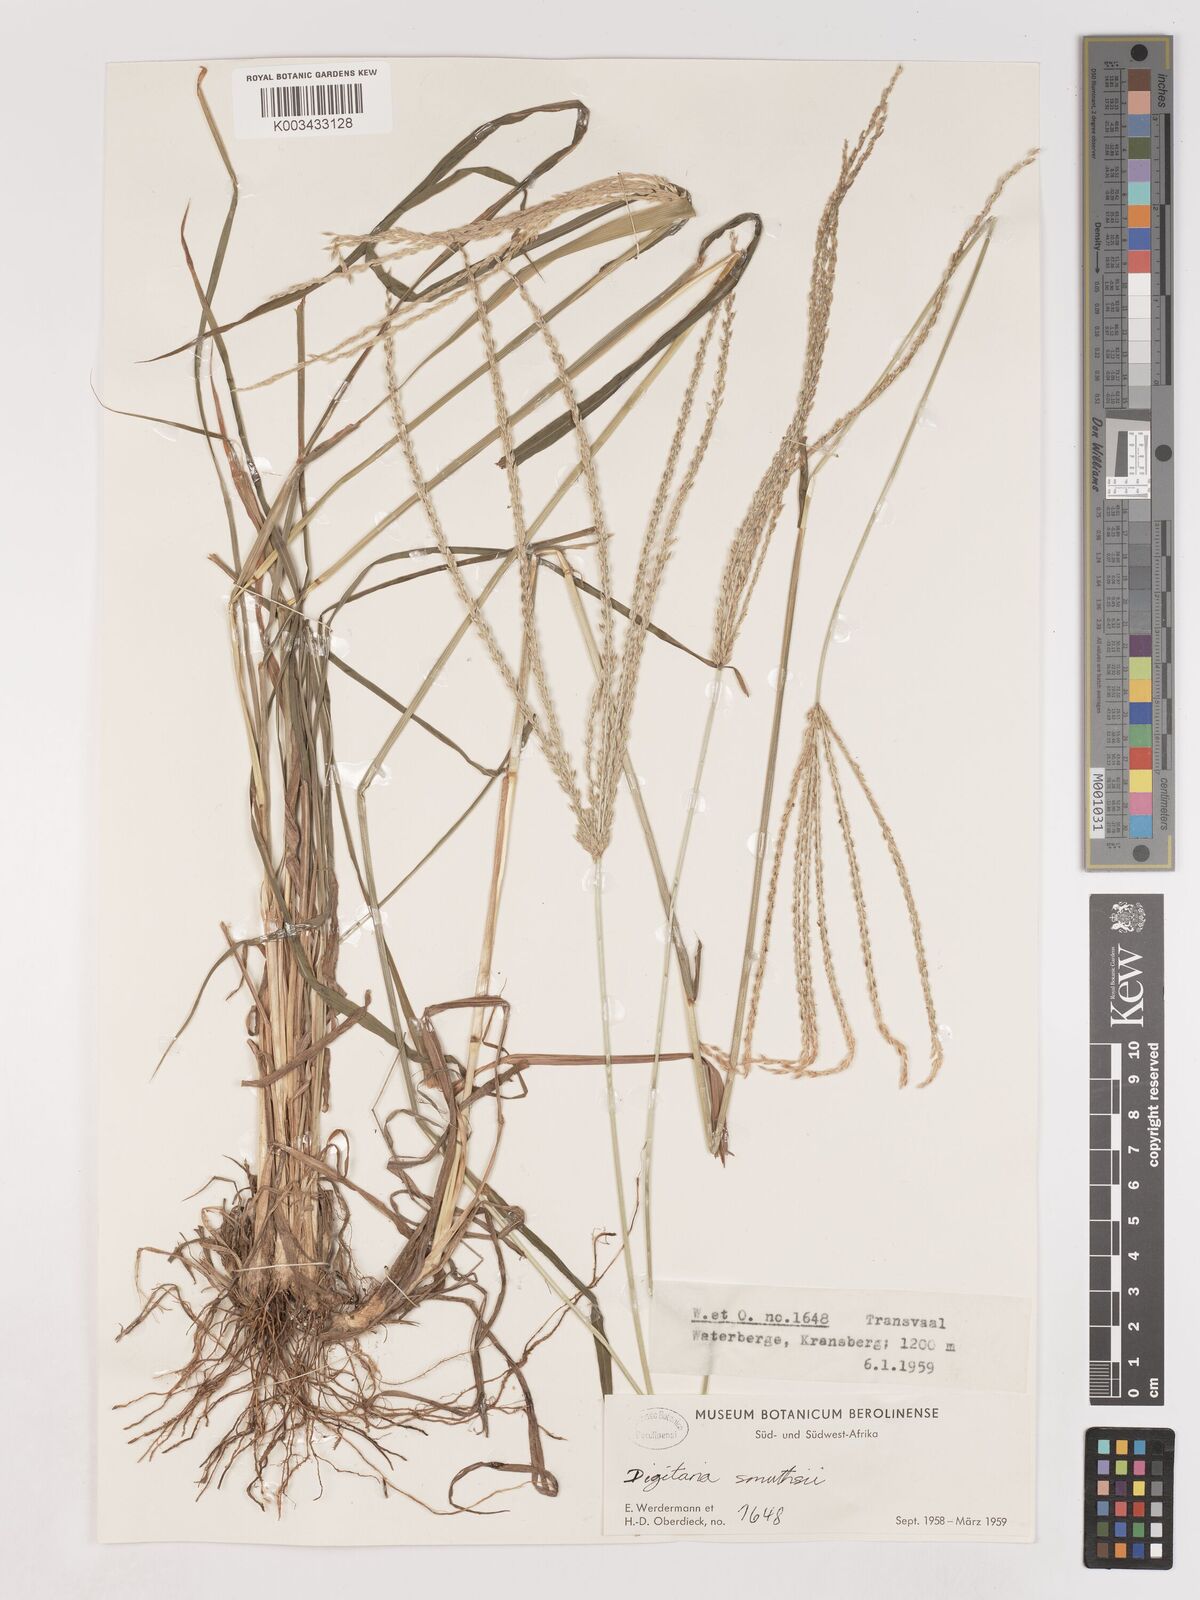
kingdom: Plantae
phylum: Tracheophyta
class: Liliopsida
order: Poales
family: Poaceae
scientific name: Poaceae
